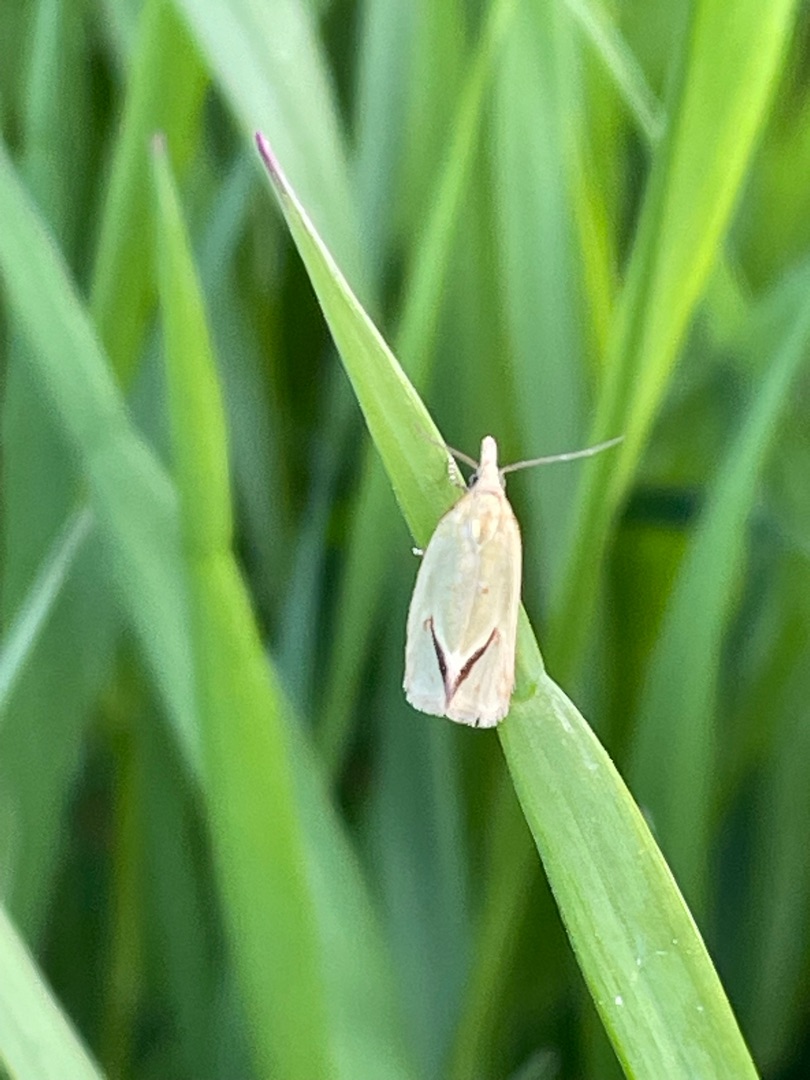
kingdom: Animalia
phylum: Arthropoda
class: Insecta
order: Lepidoptera
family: Tortricidae
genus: Agapeta
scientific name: Agapeta hamana
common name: Tidselgulvikler
